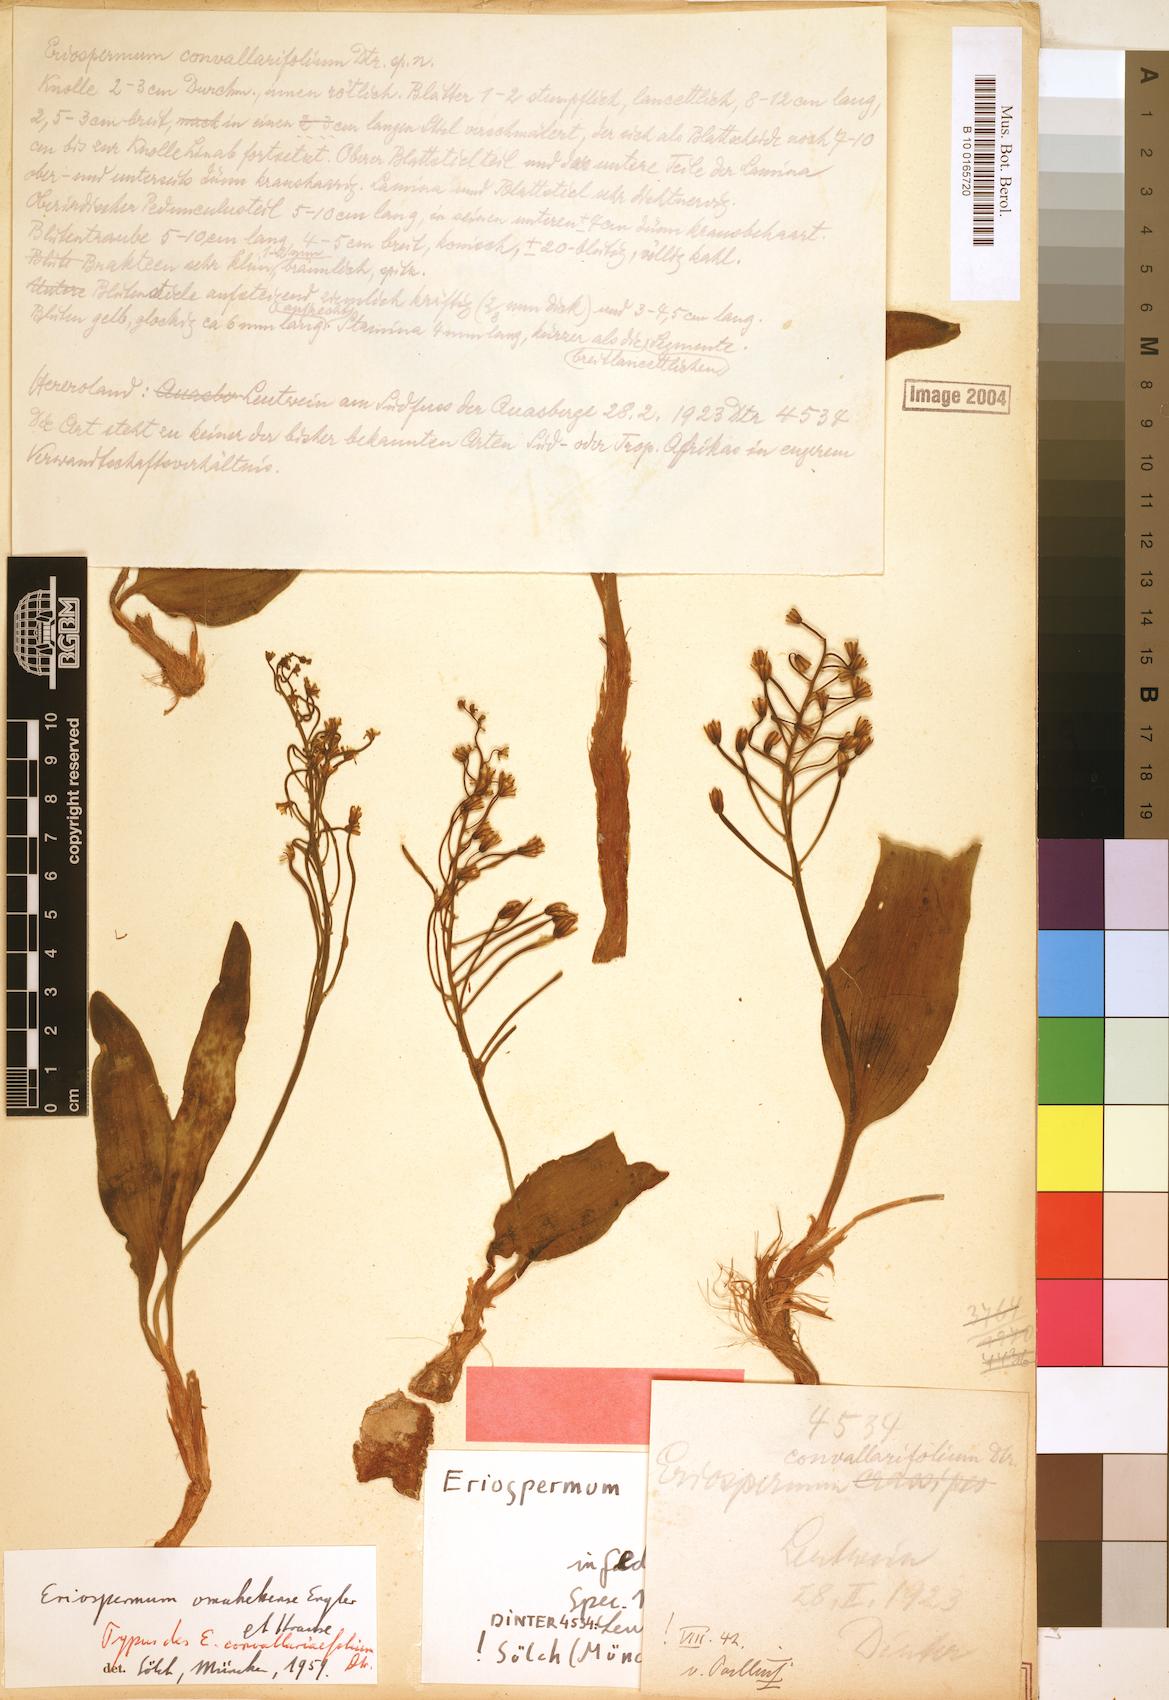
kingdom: Plantae
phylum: Tracheophyta
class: Liliopsida
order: Asparagales
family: Asparagaceae
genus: Eriospermum
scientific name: Eriospermum mackenii
